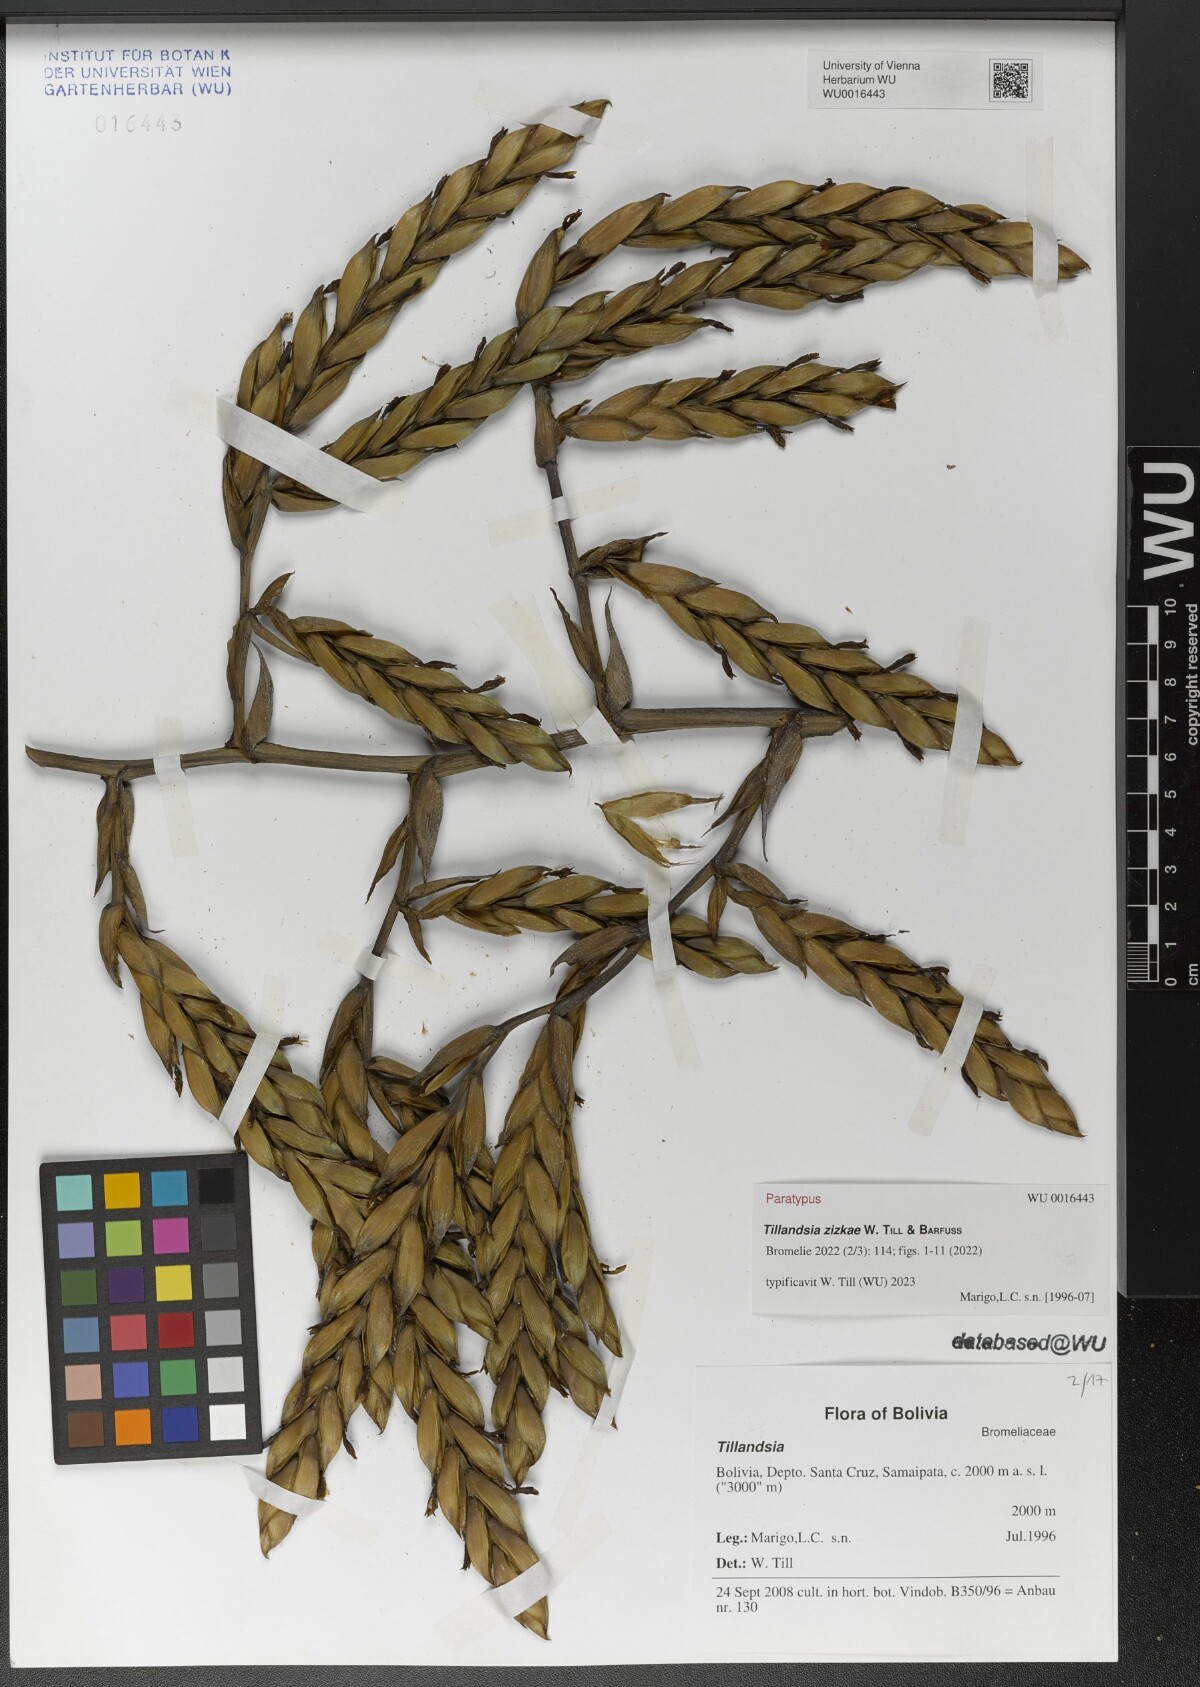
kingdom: Plantae
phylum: Tracheophyta
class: Liliopsida
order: Poales
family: Bromeliaceae
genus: Tillandsia
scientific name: Tillandsia
